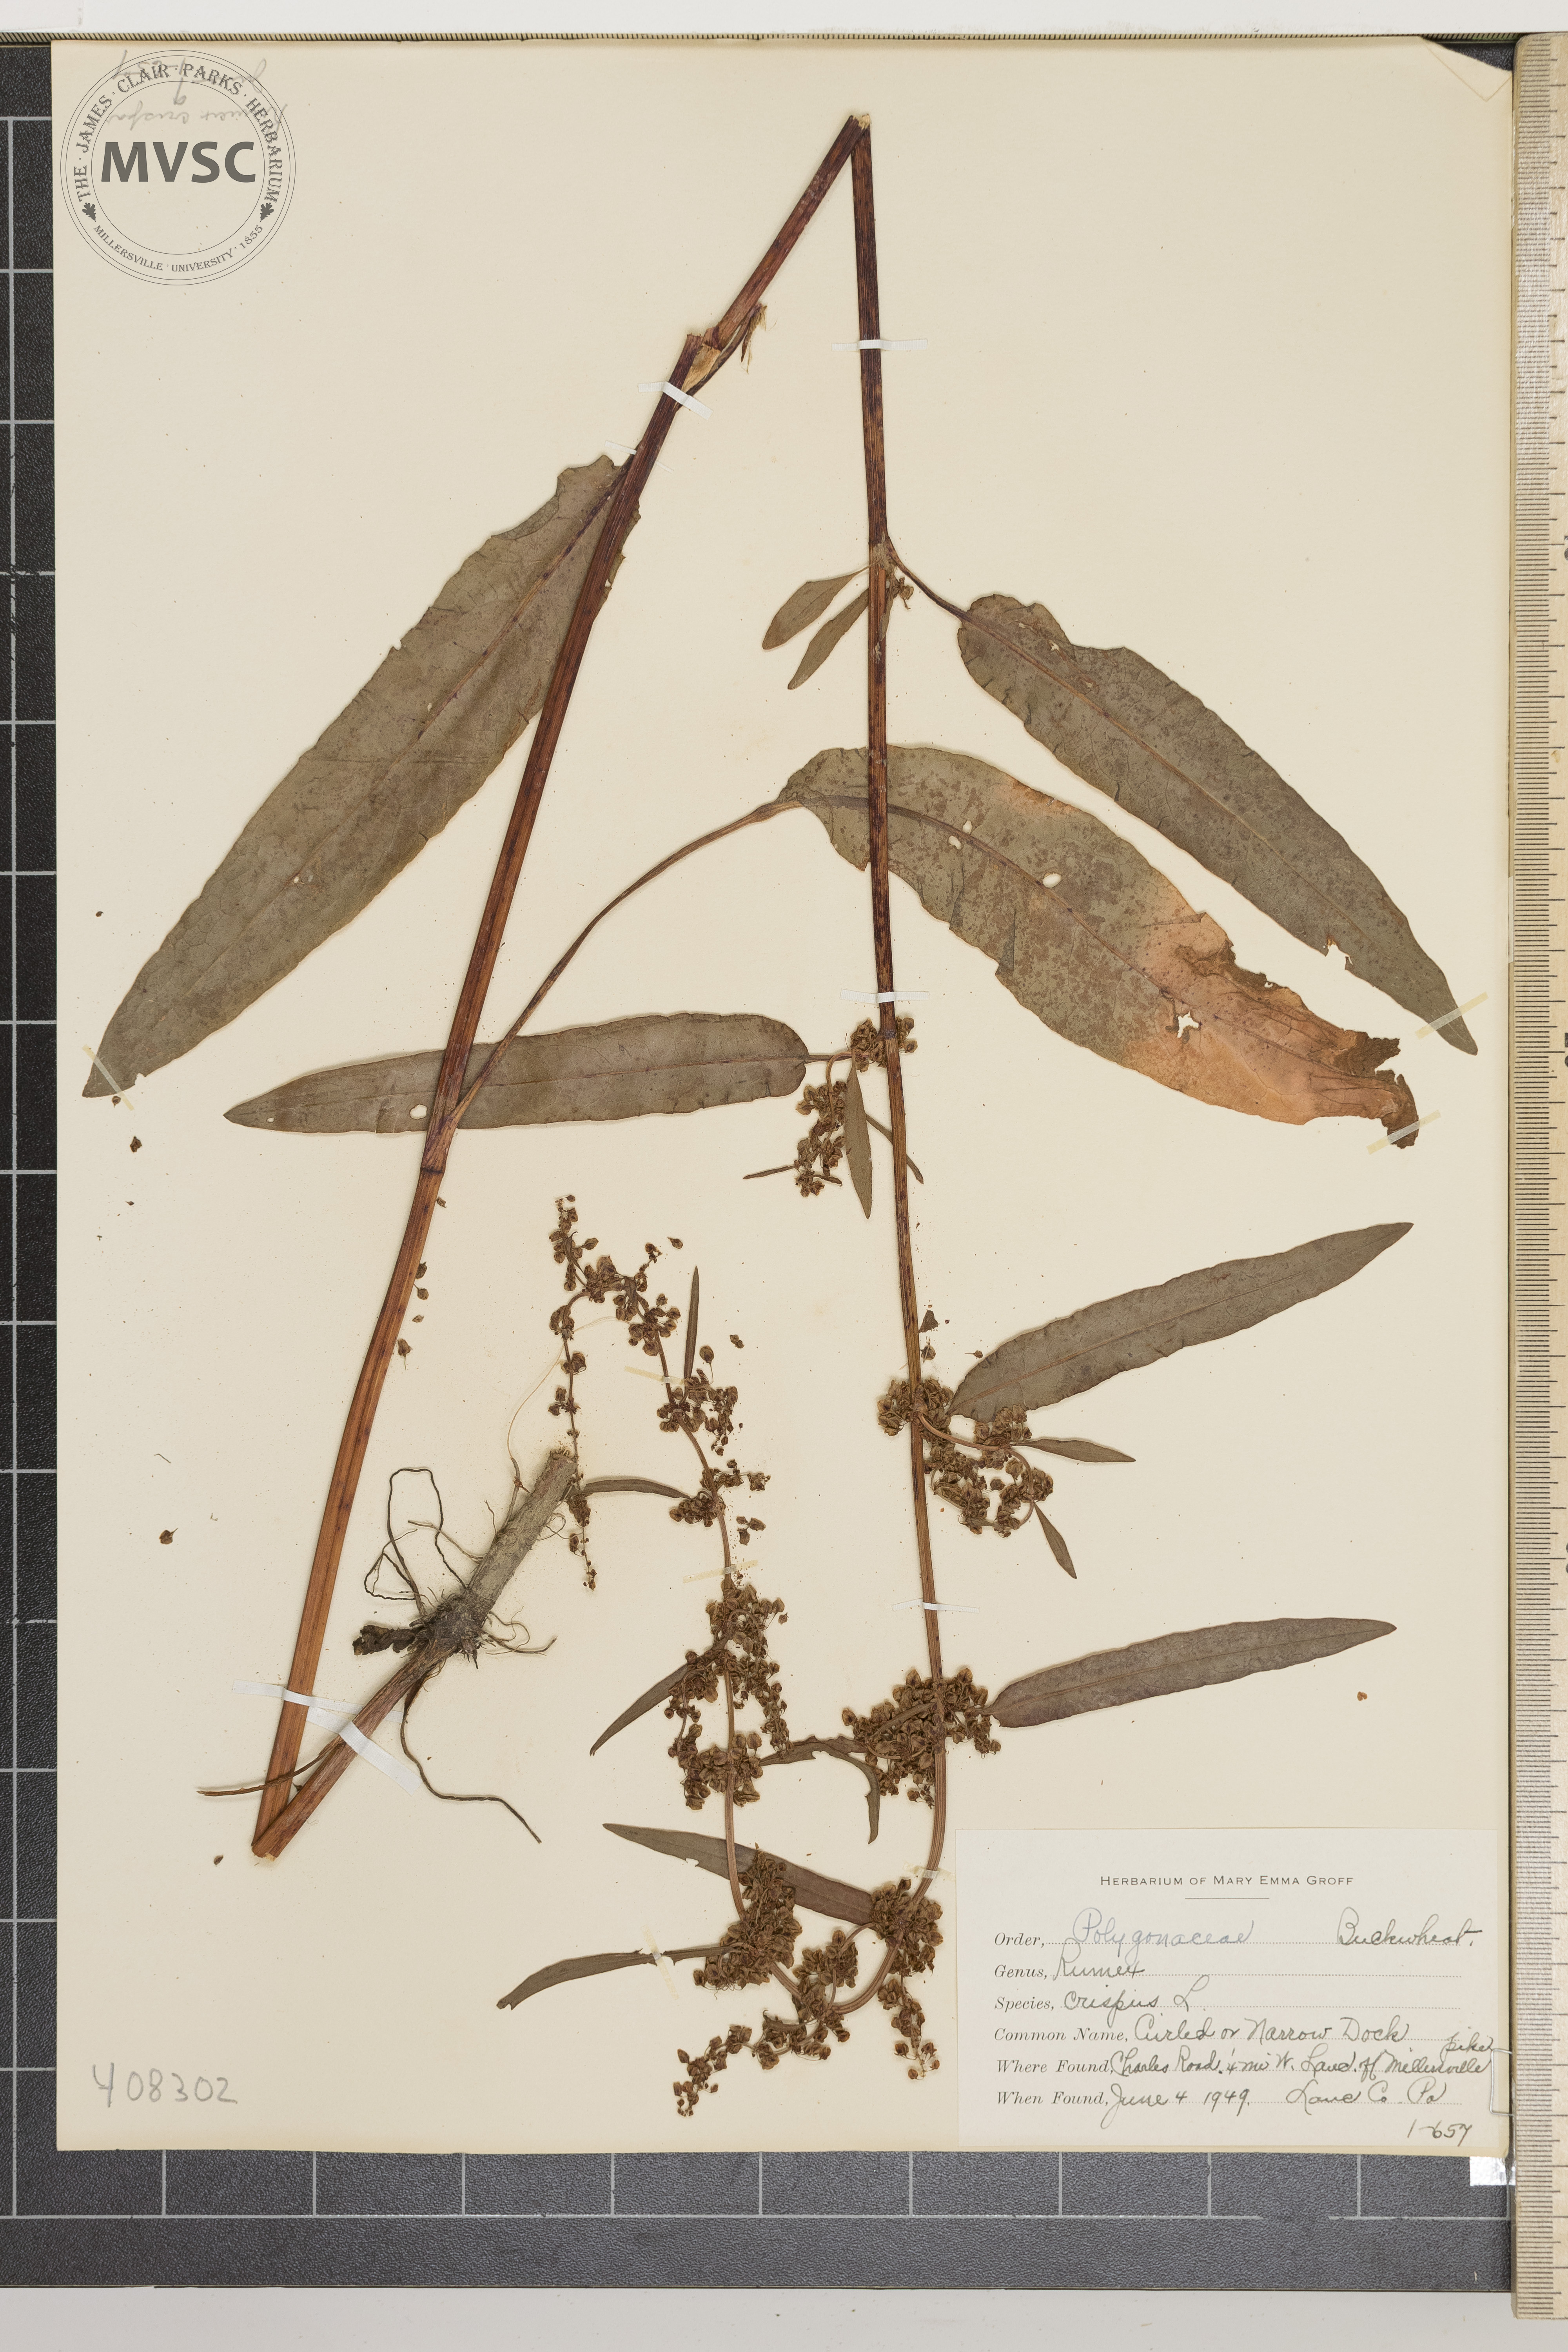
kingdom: Plantae
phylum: Tracheophyta
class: Magnoliopsida
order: Caryophyllales
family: Polygonaceae
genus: Rumex
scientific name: Rumex crispus
